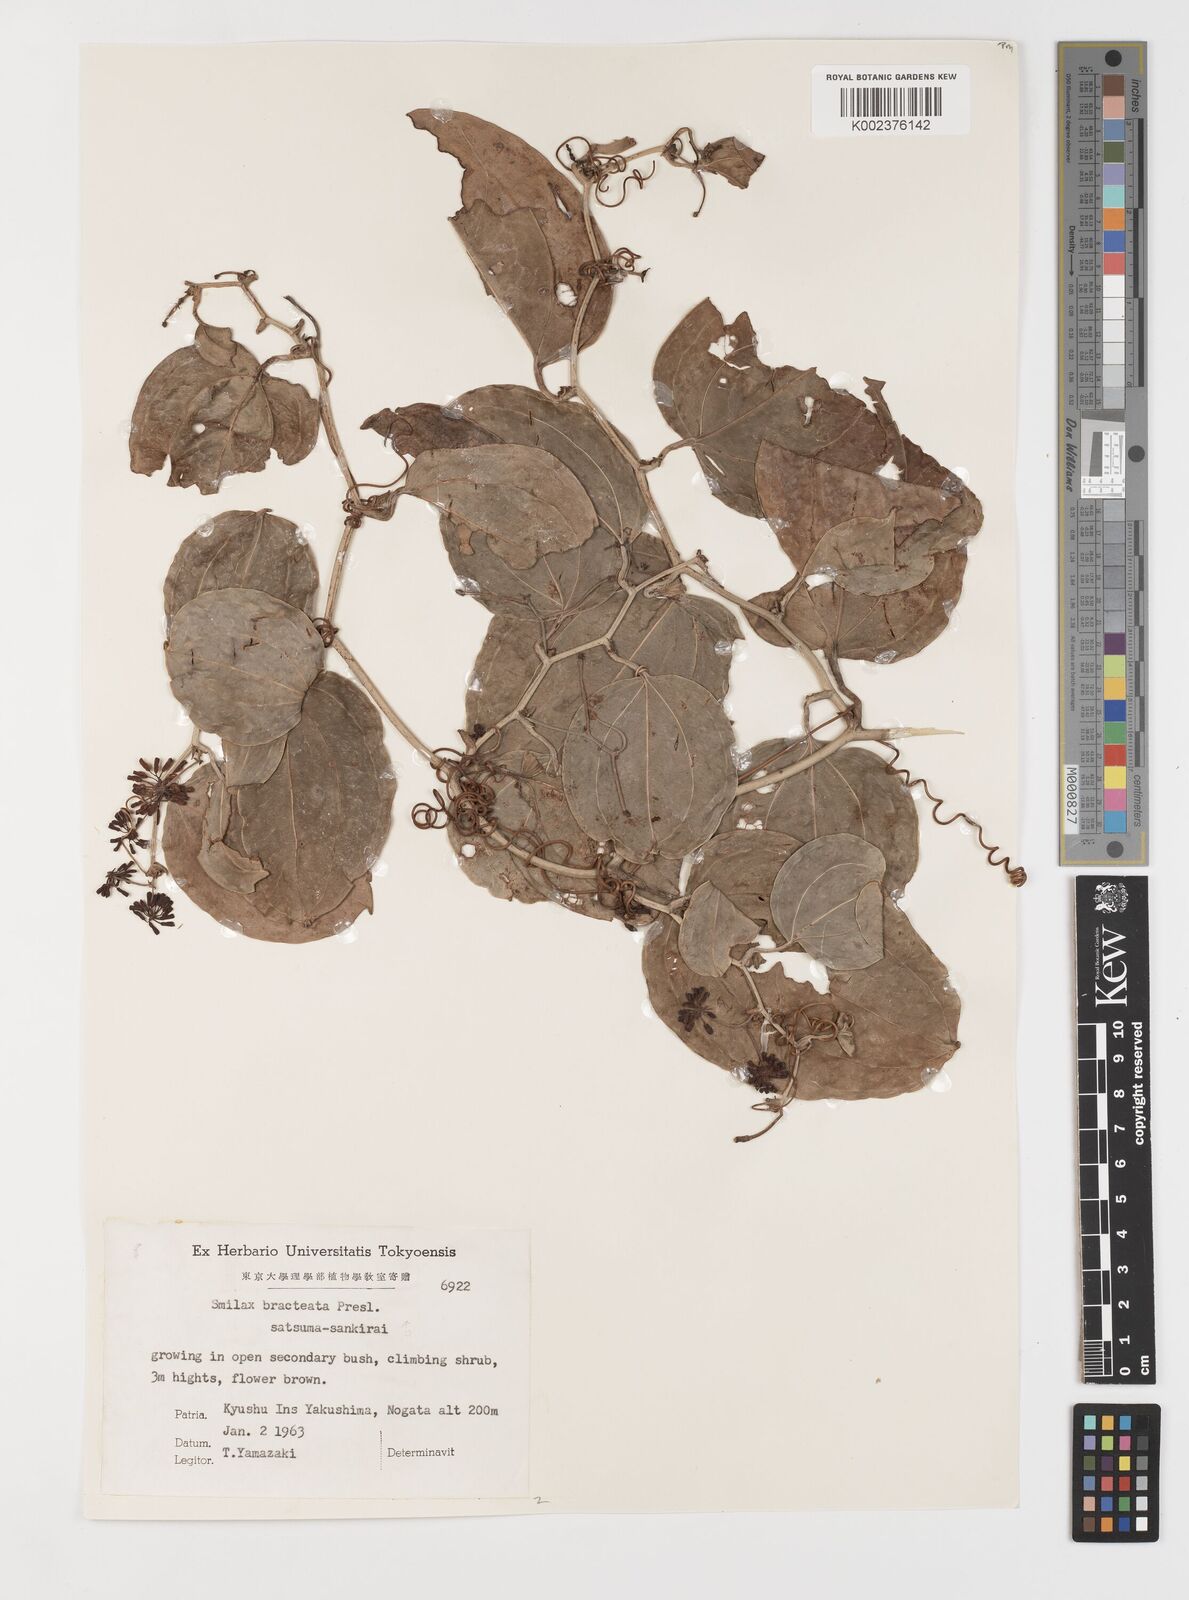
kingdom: Plantae
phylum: Tracheophyta
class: Liliopsida
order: Liliales
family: Smilacaceae
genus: Smilax
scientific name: Smilax bracteata
